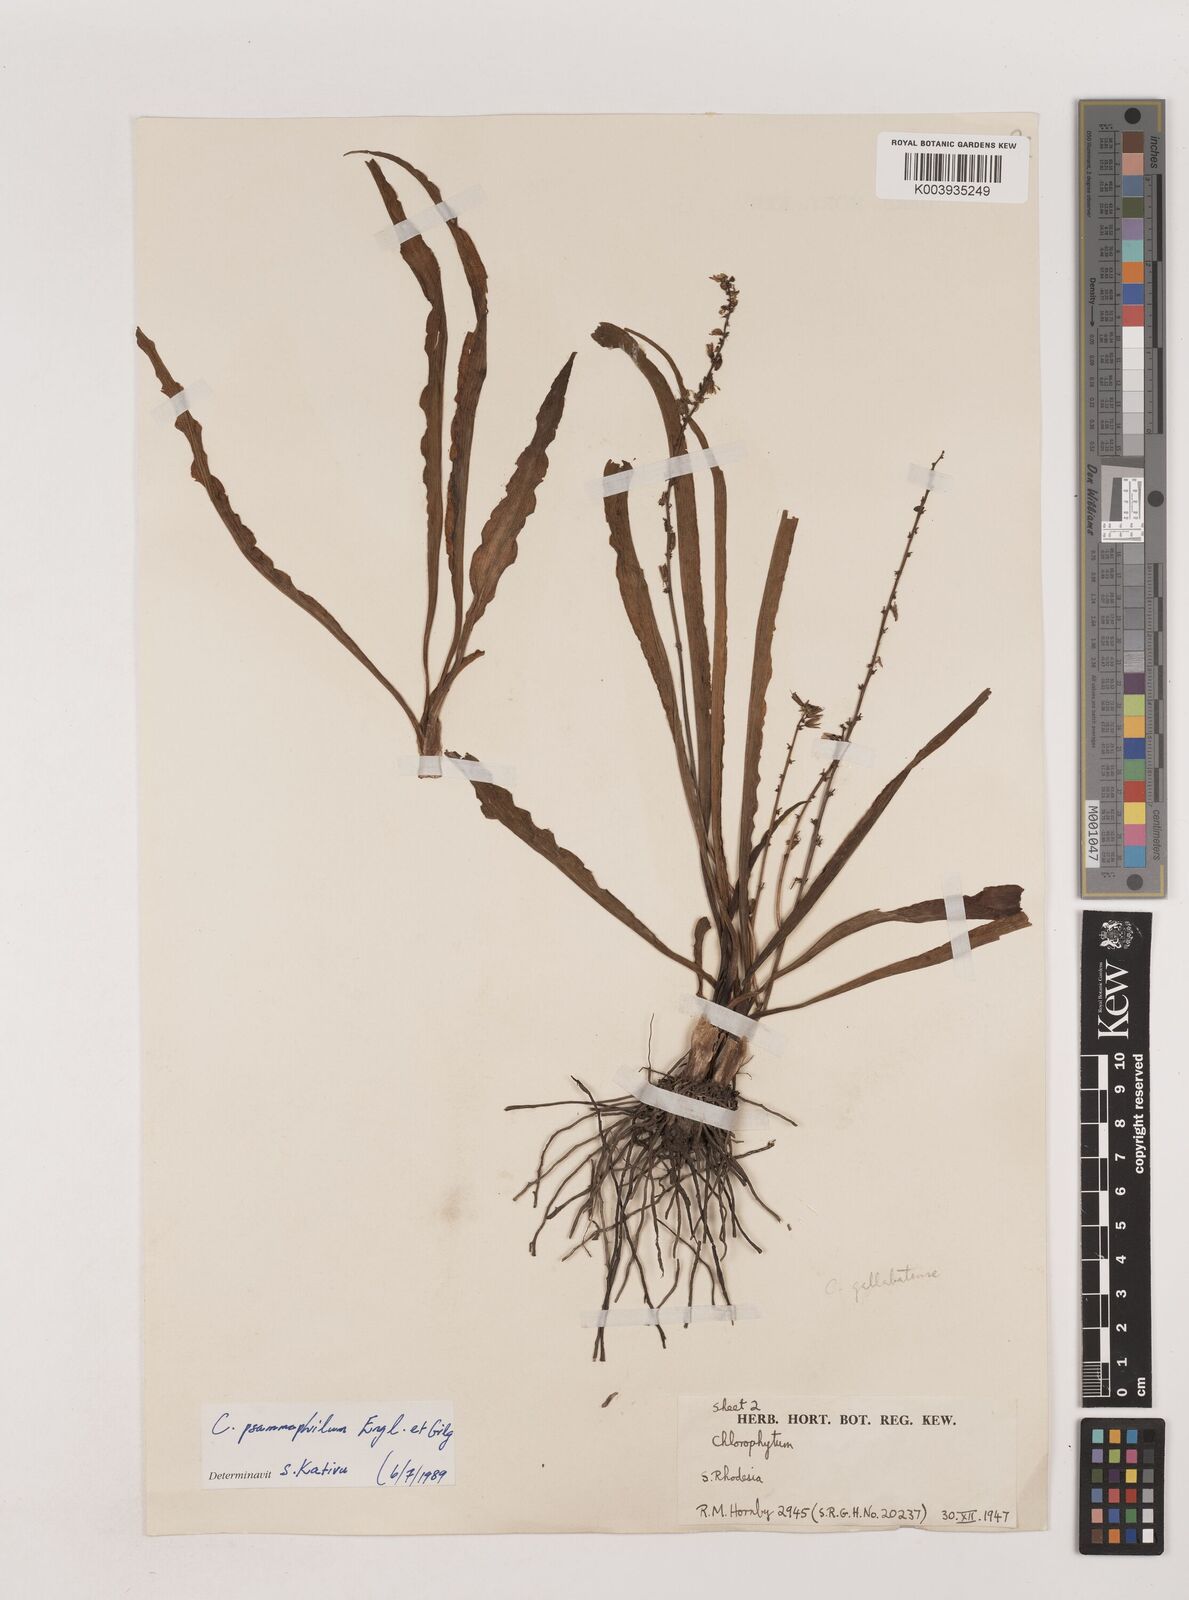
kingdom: Plantae
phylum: Tracheophyta
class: Liliopsida
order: Asparagales
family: Asparagaceae
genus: Chlorophytum
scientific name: Chlorophytum gallabatense
